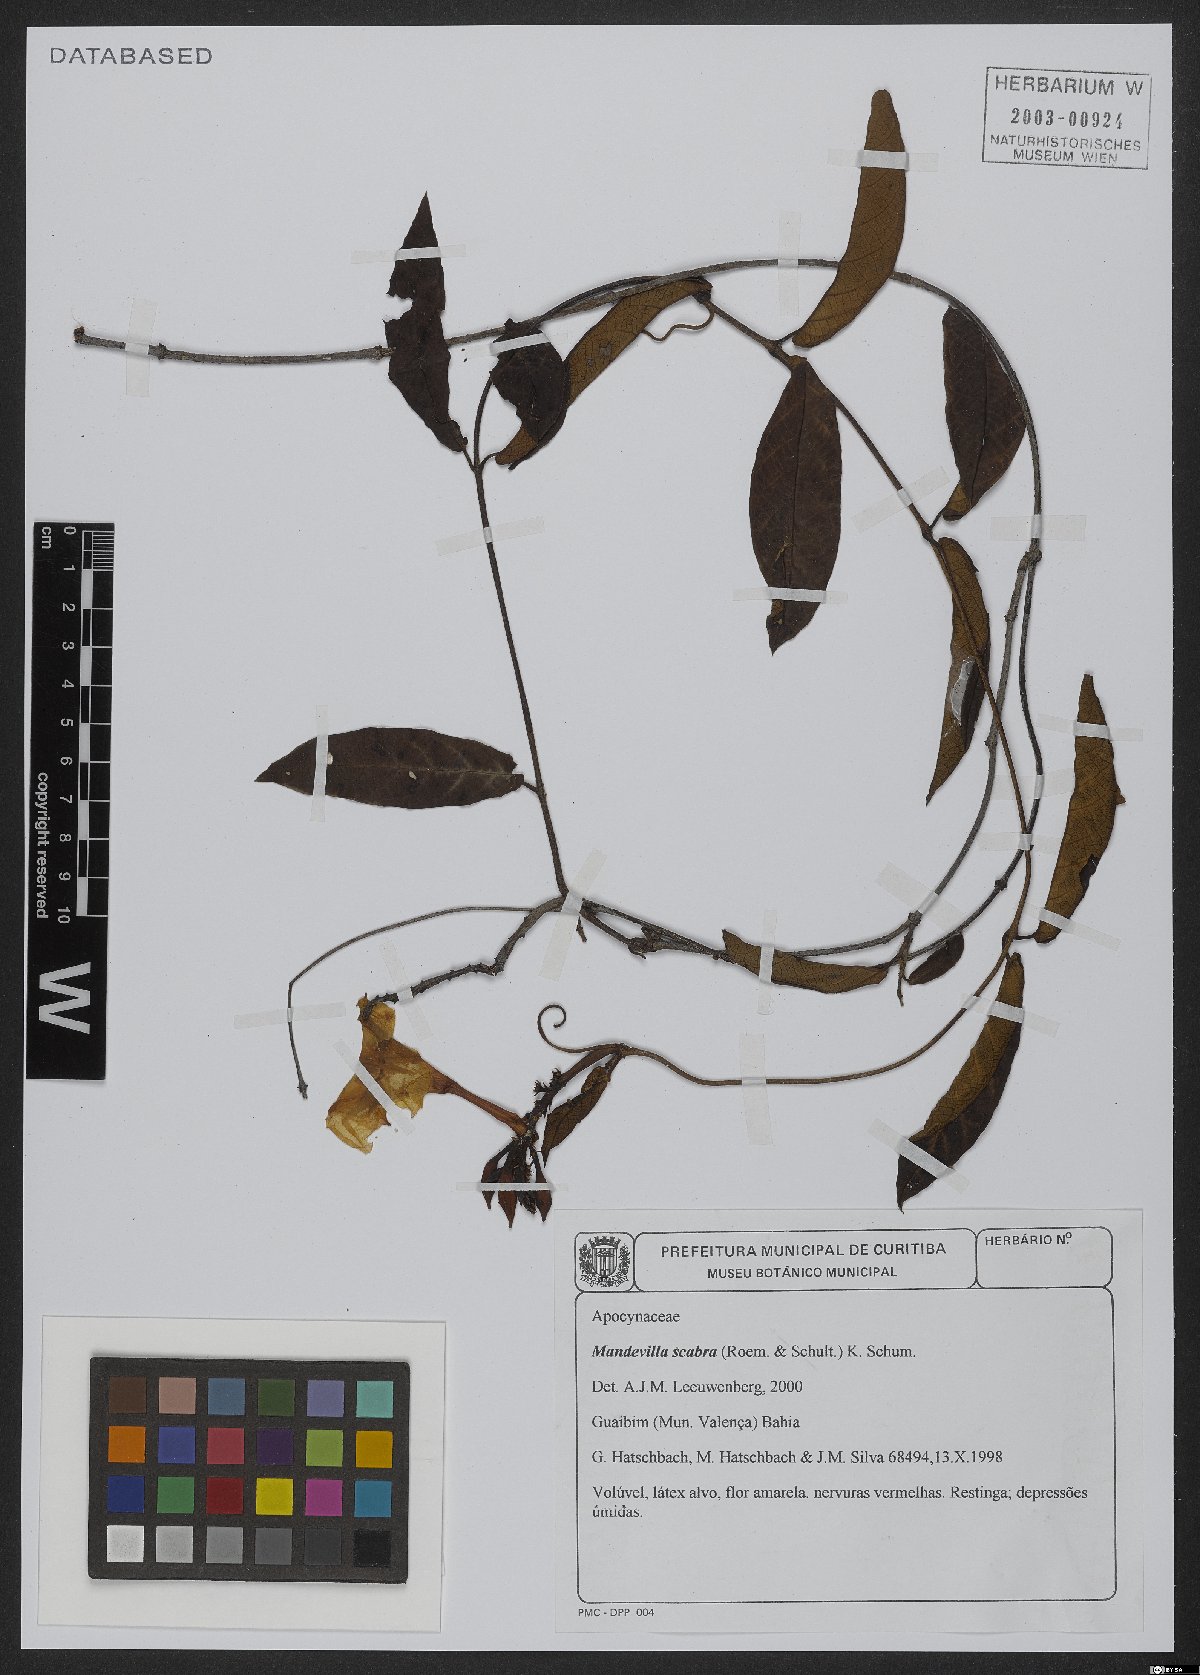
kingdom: Plantae
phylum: Tracheophyta
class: Magnoliopsida
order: Gentianales
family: Apocynaceae
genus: Mandevilla
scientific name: Mandevilla scabra
